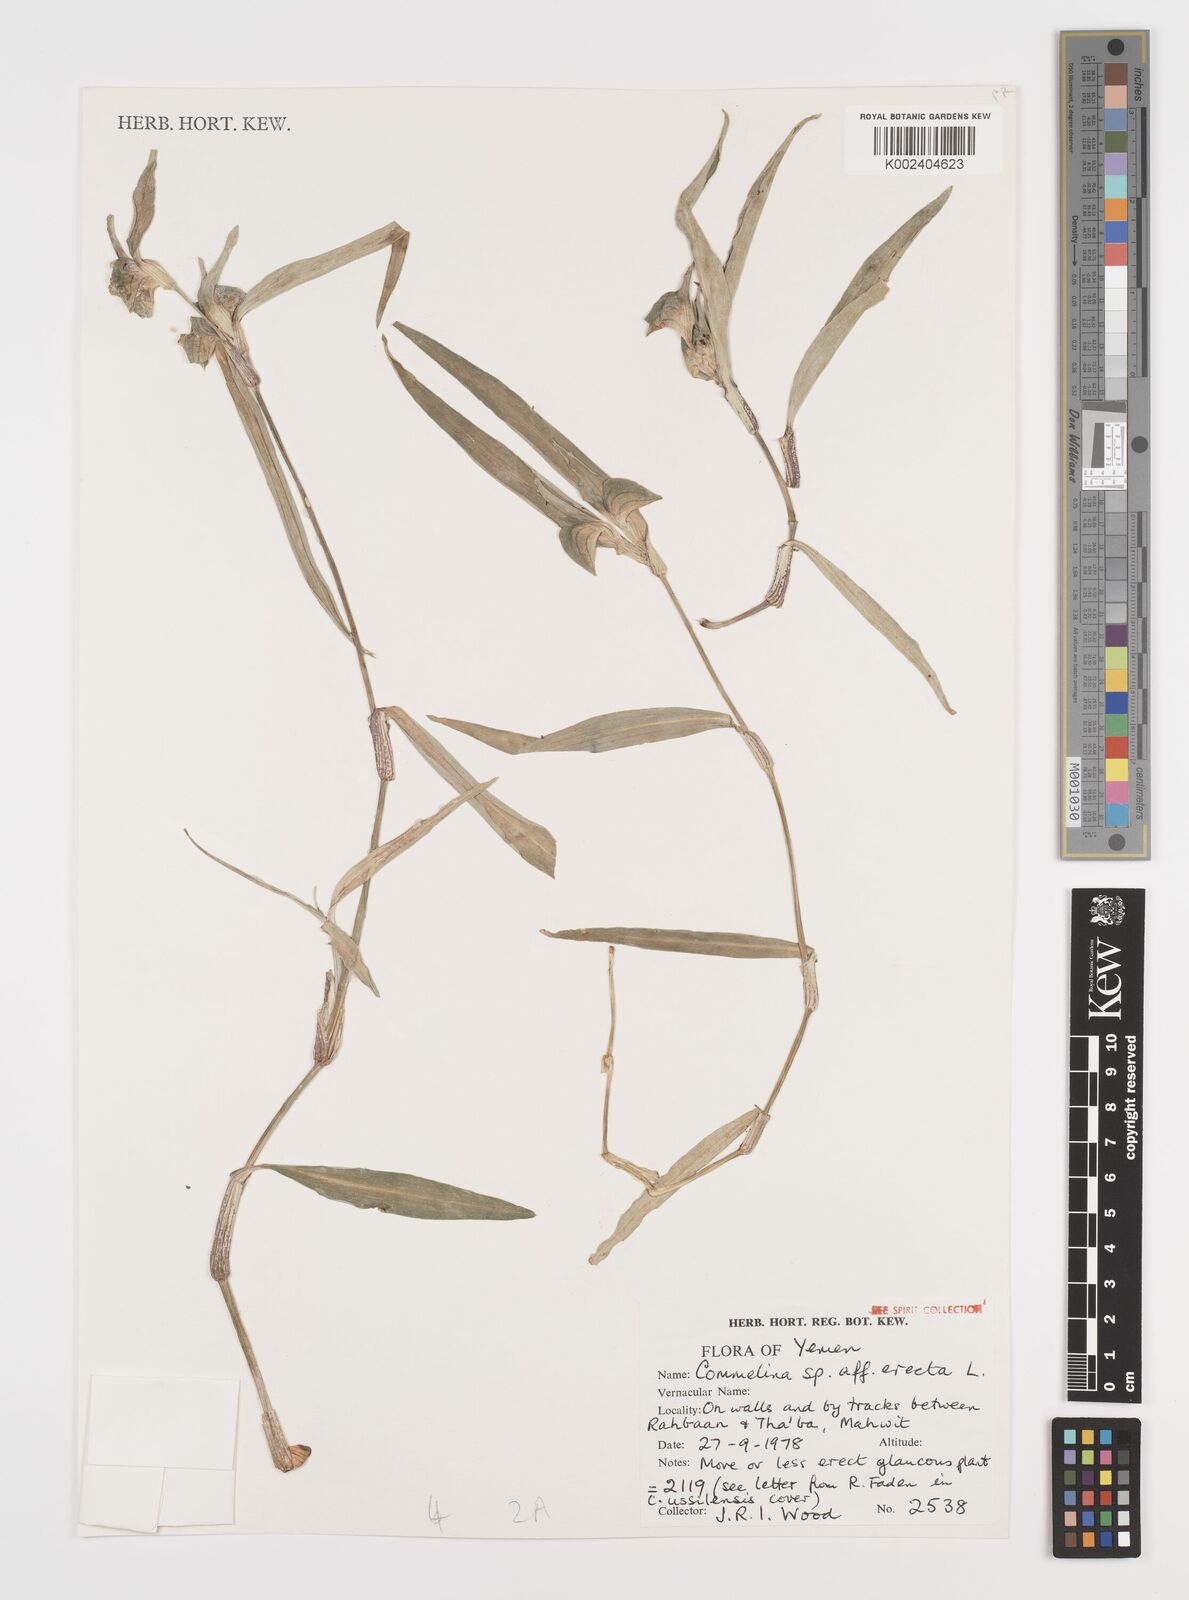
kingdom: Plantae
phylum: Tracheophyta
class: Liliopsida
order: Commelinales
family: Commelinaceae
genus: Commelina
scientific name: Commelina erecta
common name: Blousel blommetjie
